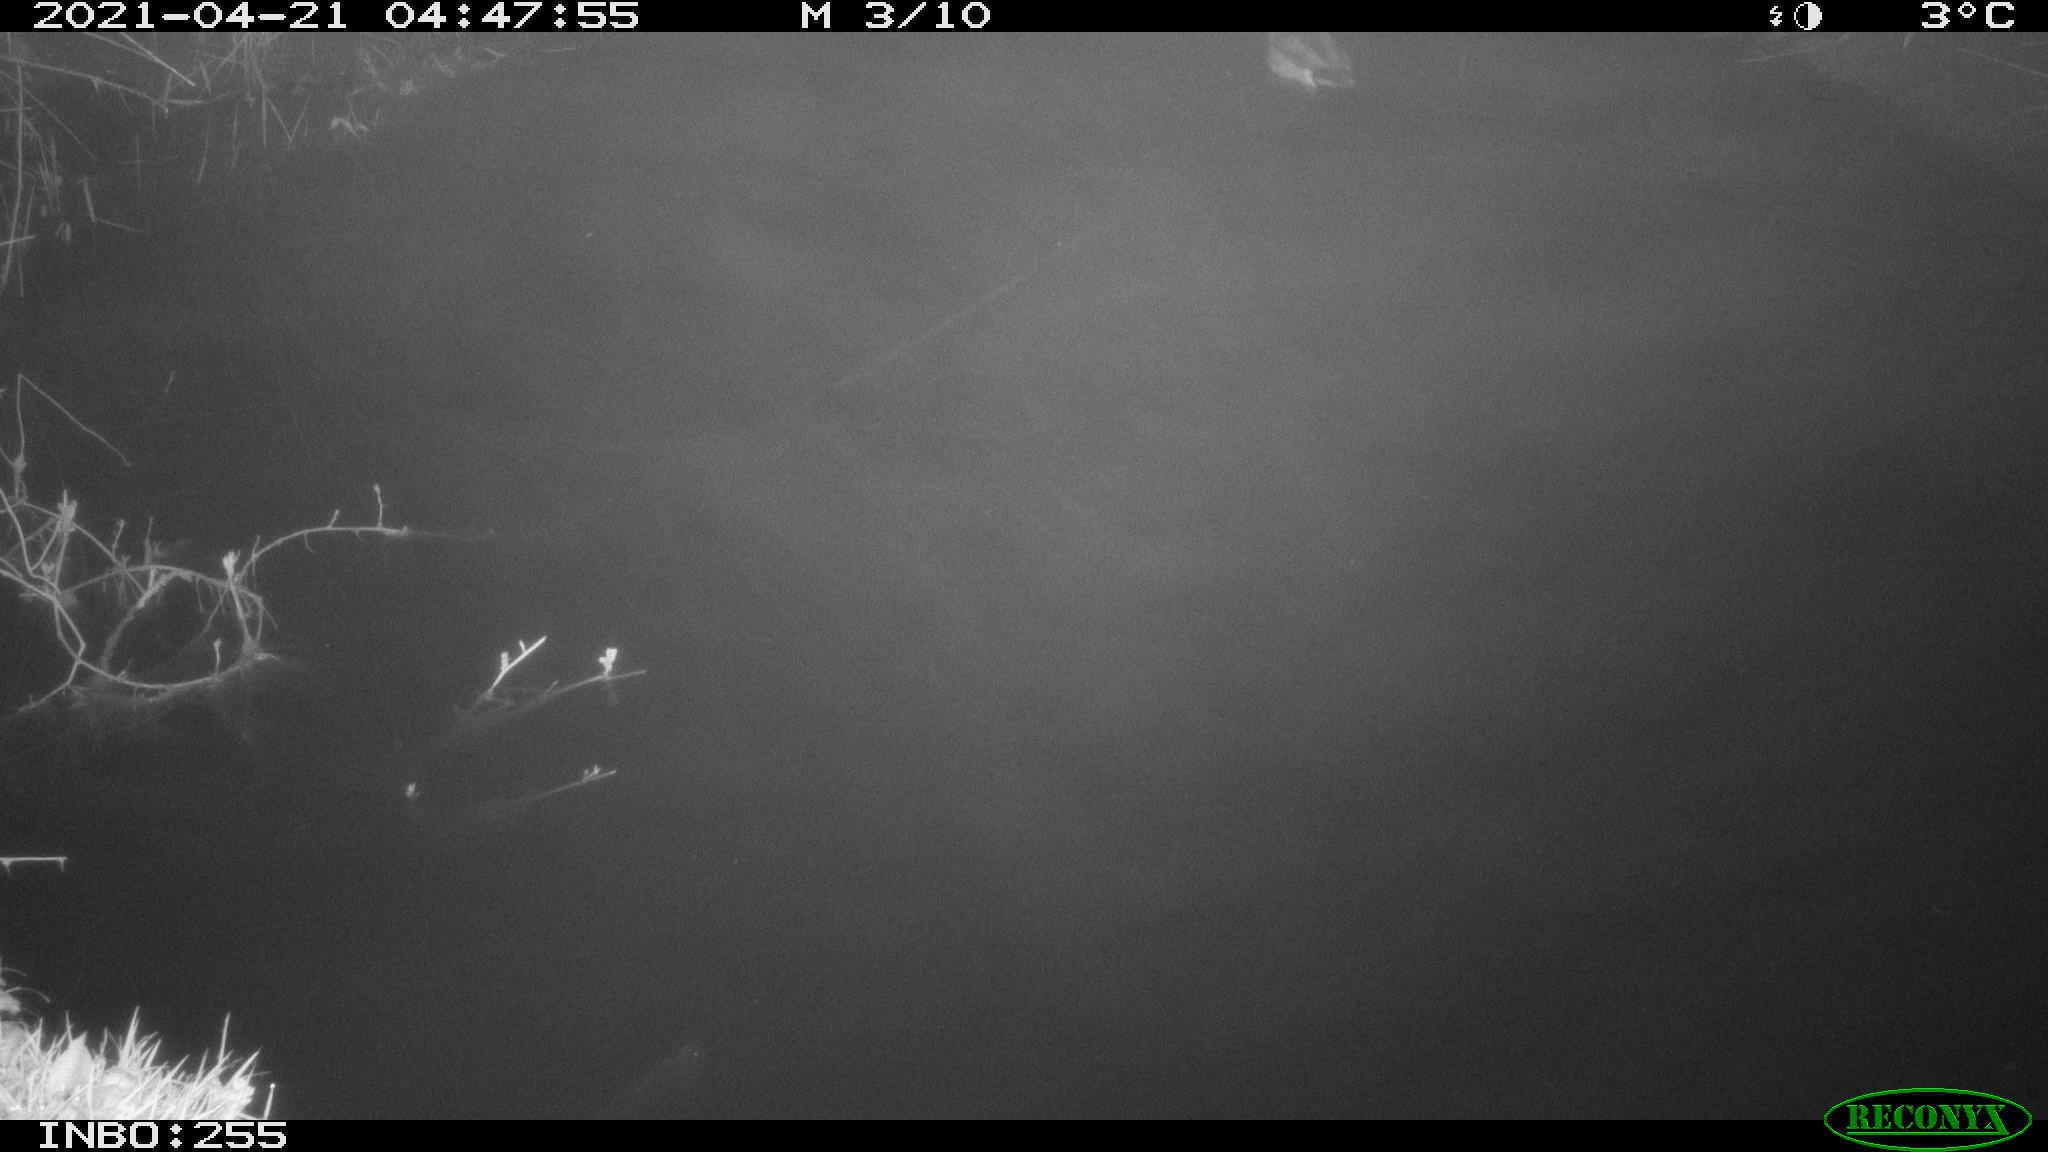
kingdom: Animalia
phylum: Chordata
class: Aves
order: Anseriformes
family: Anatidae
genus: Anas
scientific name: Anas platyrhynchos
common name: Mallard
